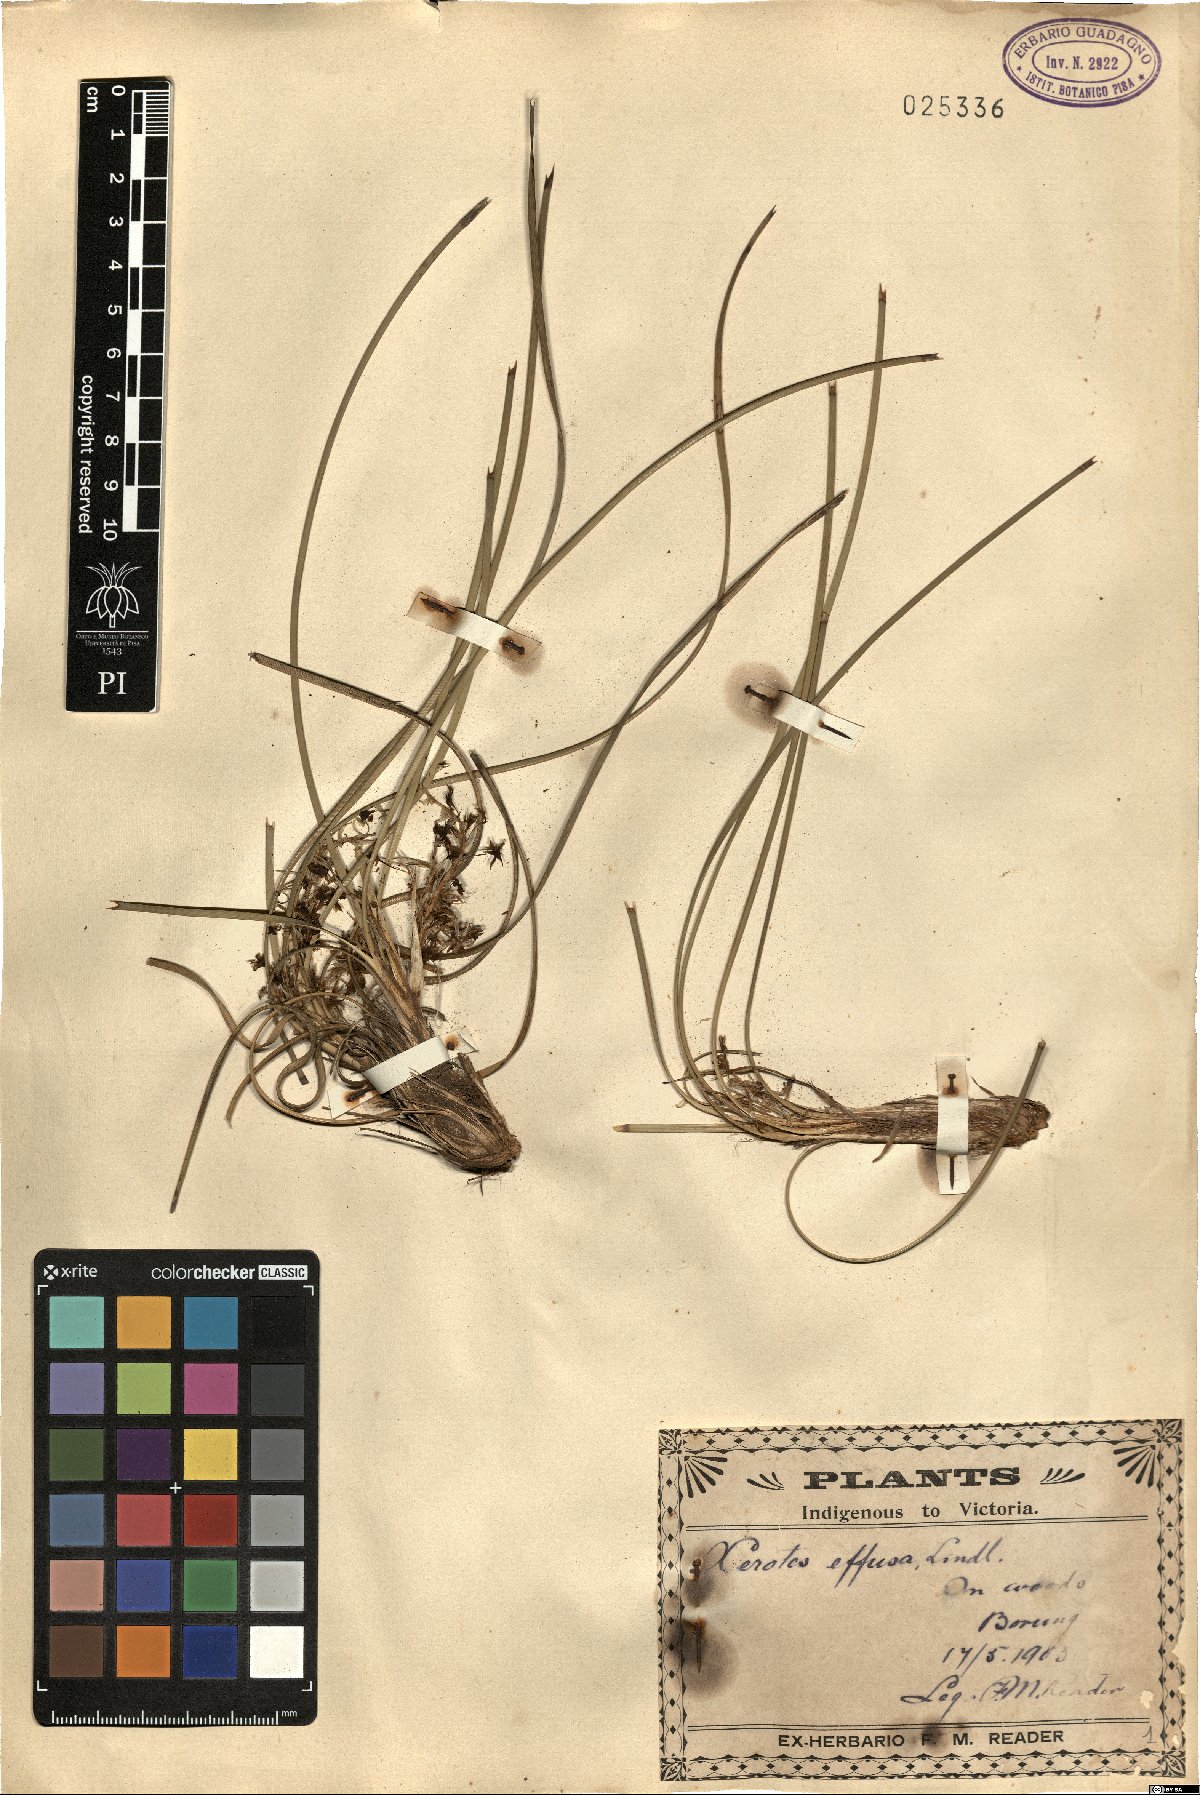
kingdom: Plantae
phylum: Tracheophyta
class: Liliopsida
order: Asparagales
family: Asparagaceae
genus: Lomandra
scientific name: Lomandra effusa
